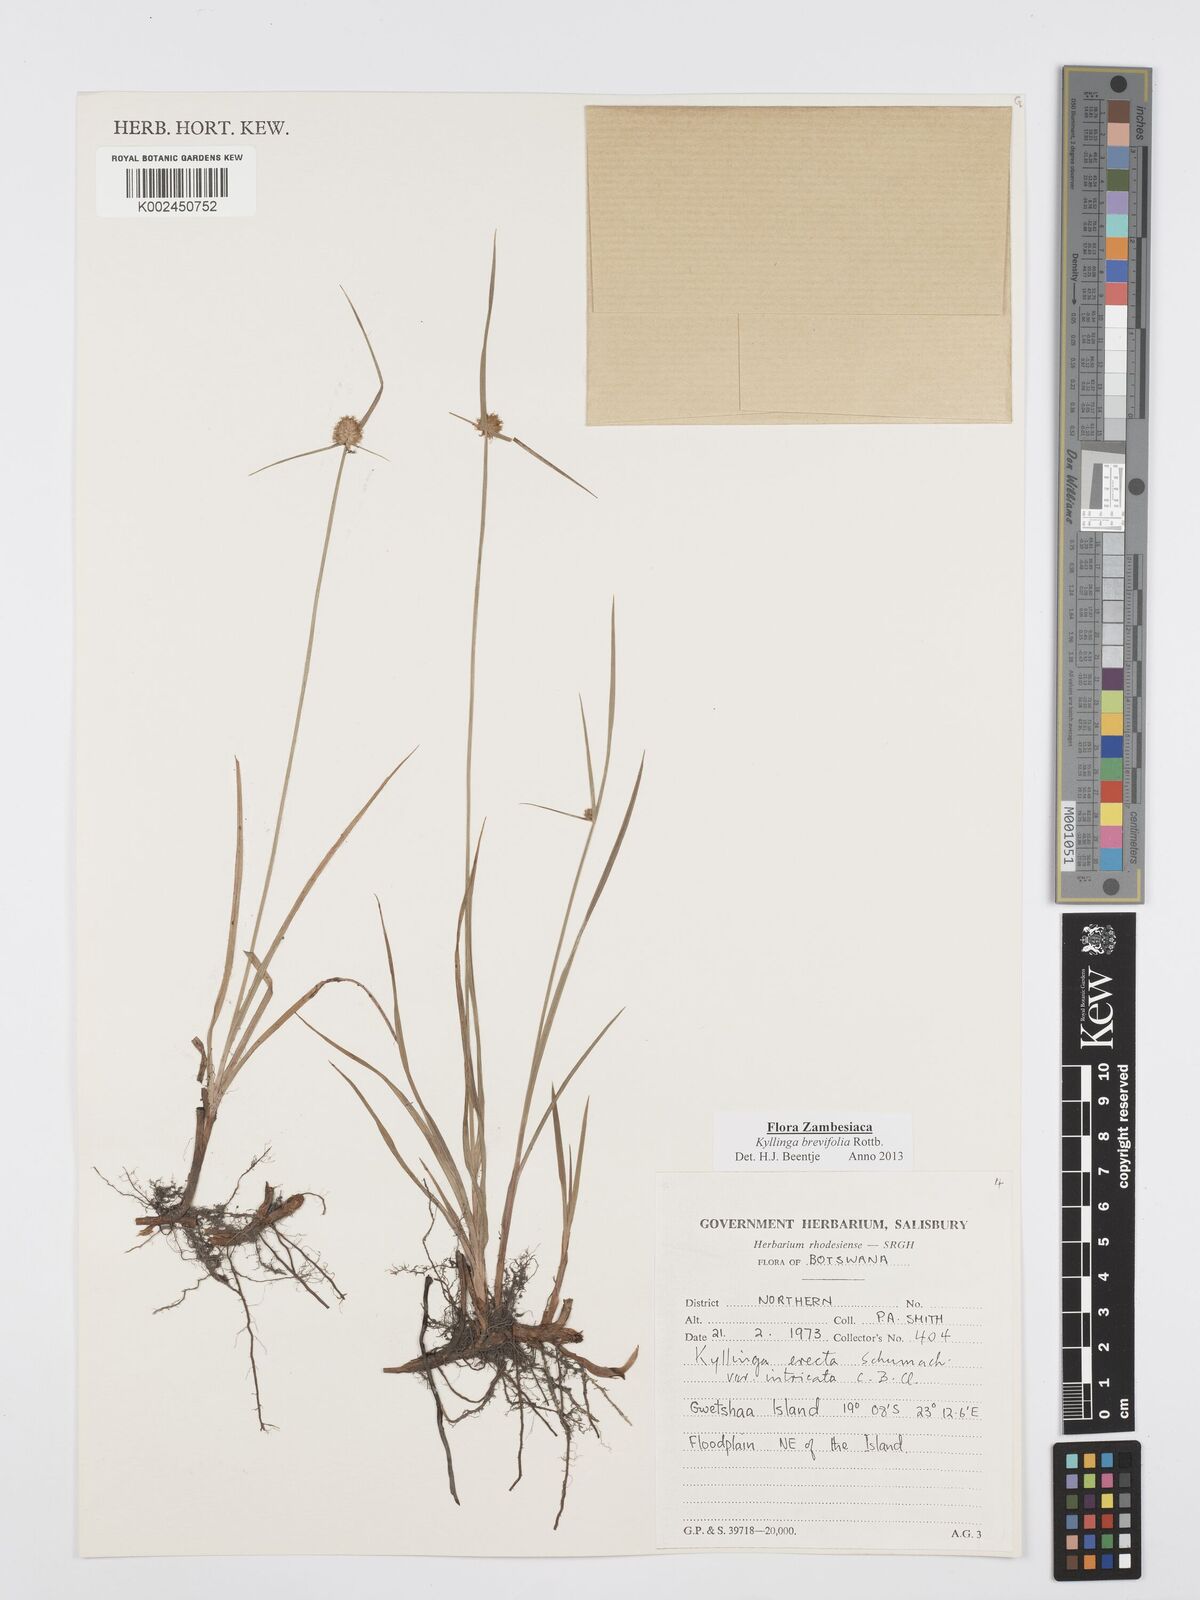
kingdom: Plantae
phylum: Tracheophyta
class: Liliopsida
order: Poales
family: Cyperaceae
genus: Cyperus
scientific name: Cyperus brevifolius
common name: Globe kyllinga
